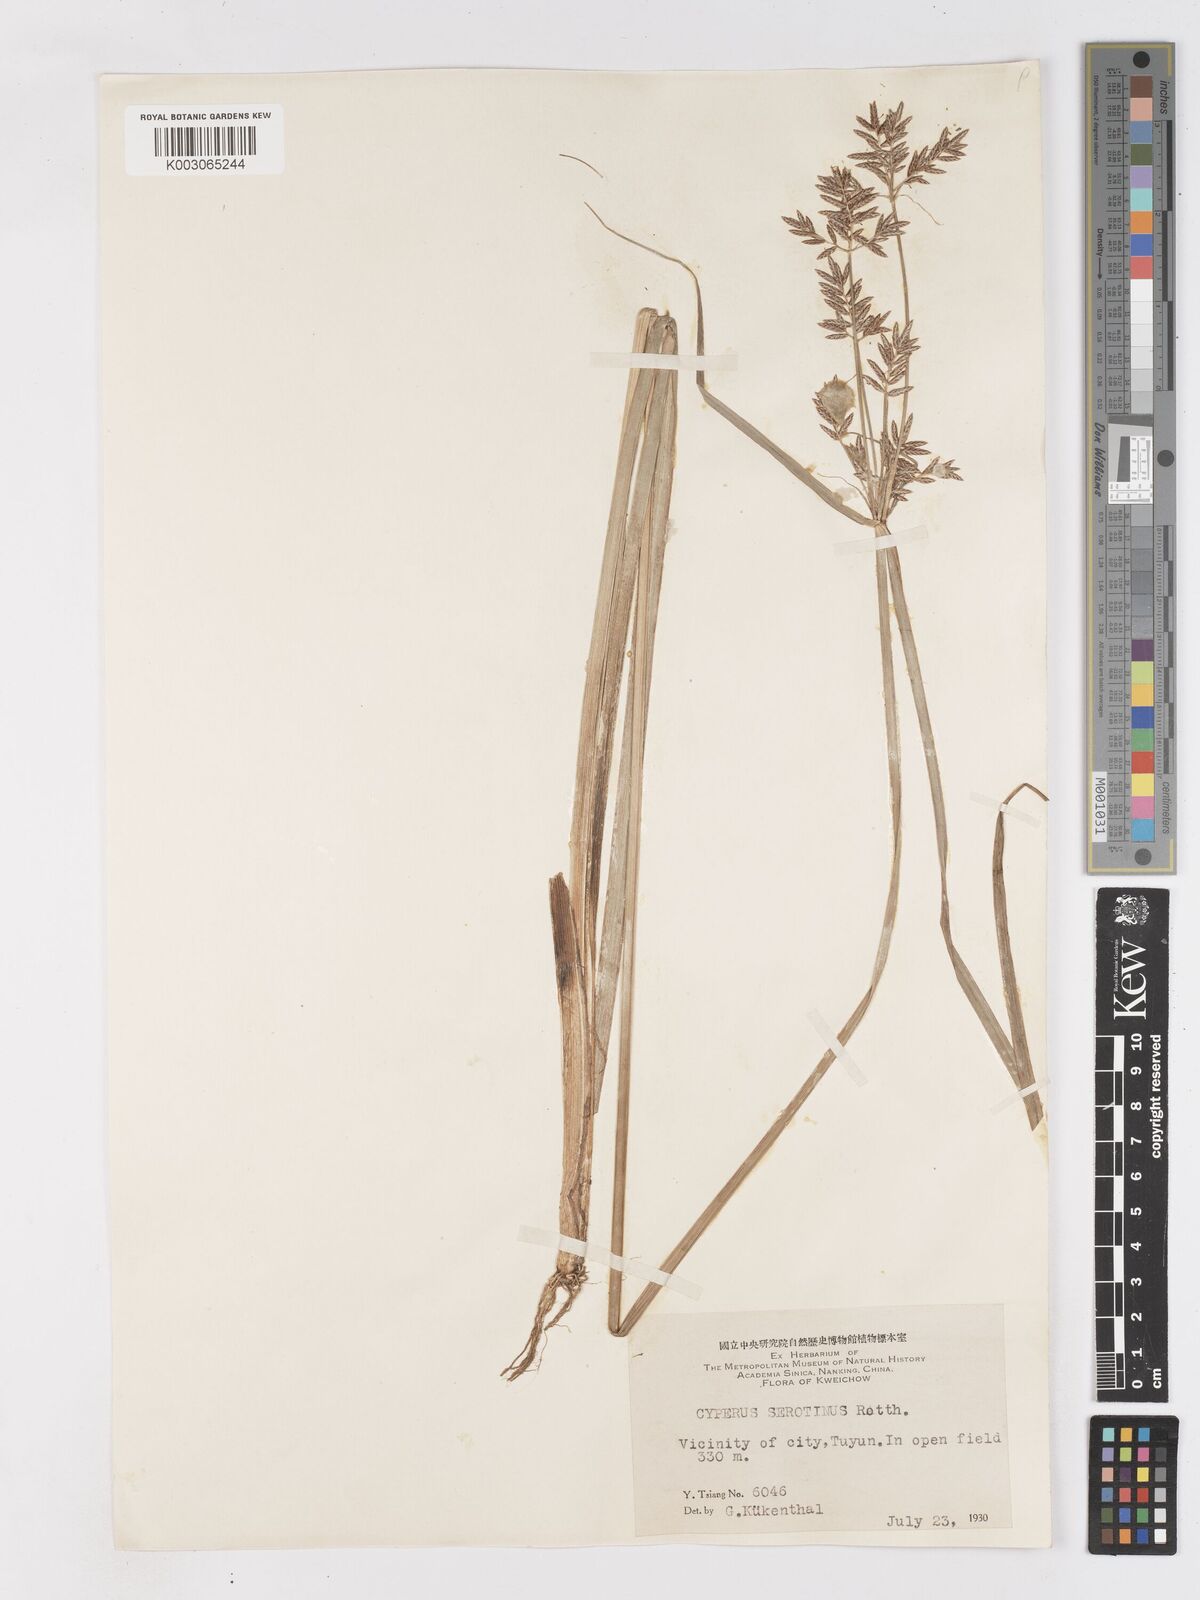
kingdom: Plantae
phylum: Tracheophyta
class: Liliopsida
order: Poales
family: Cyperaceae
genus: Cyperus
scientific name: Cyperus serotinus
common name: Tidalmarsh flatsedge
